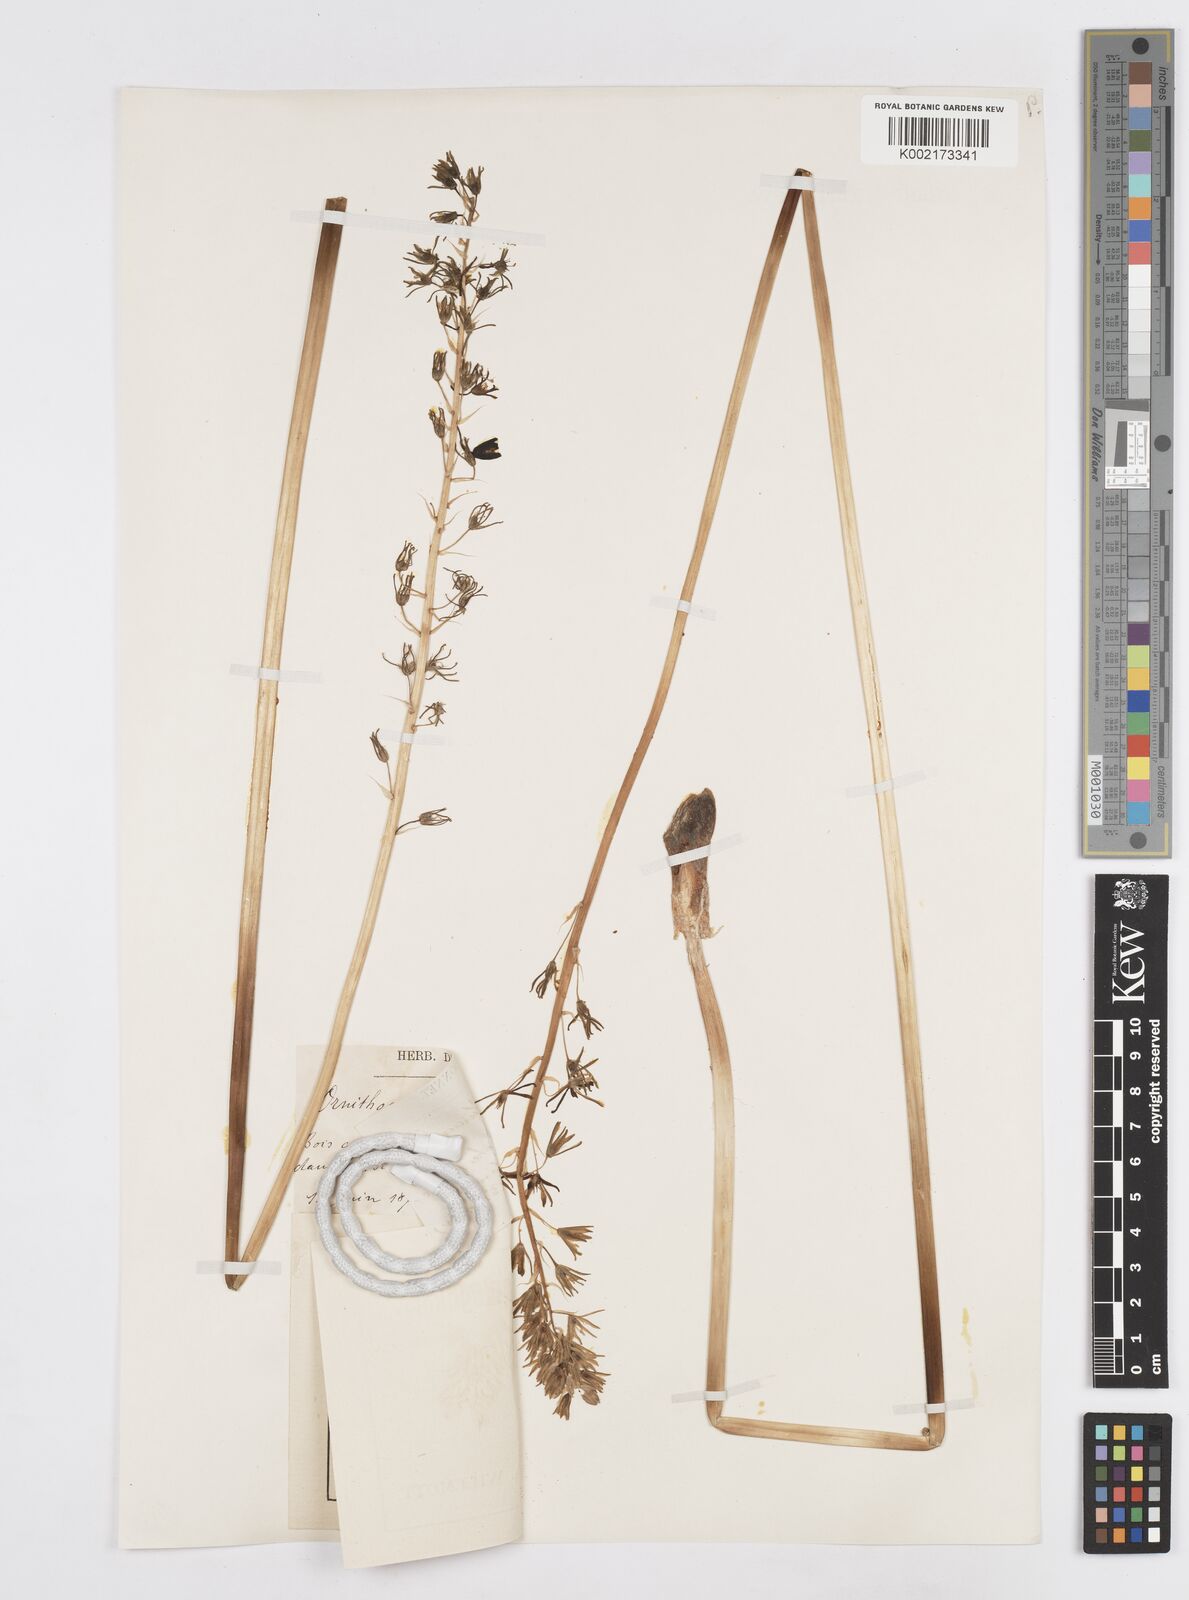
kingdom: Plantae
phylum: Tracheophyta
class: Liliopsida
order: Asparagales
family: Asparagaceae
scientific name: Asparagaceae
